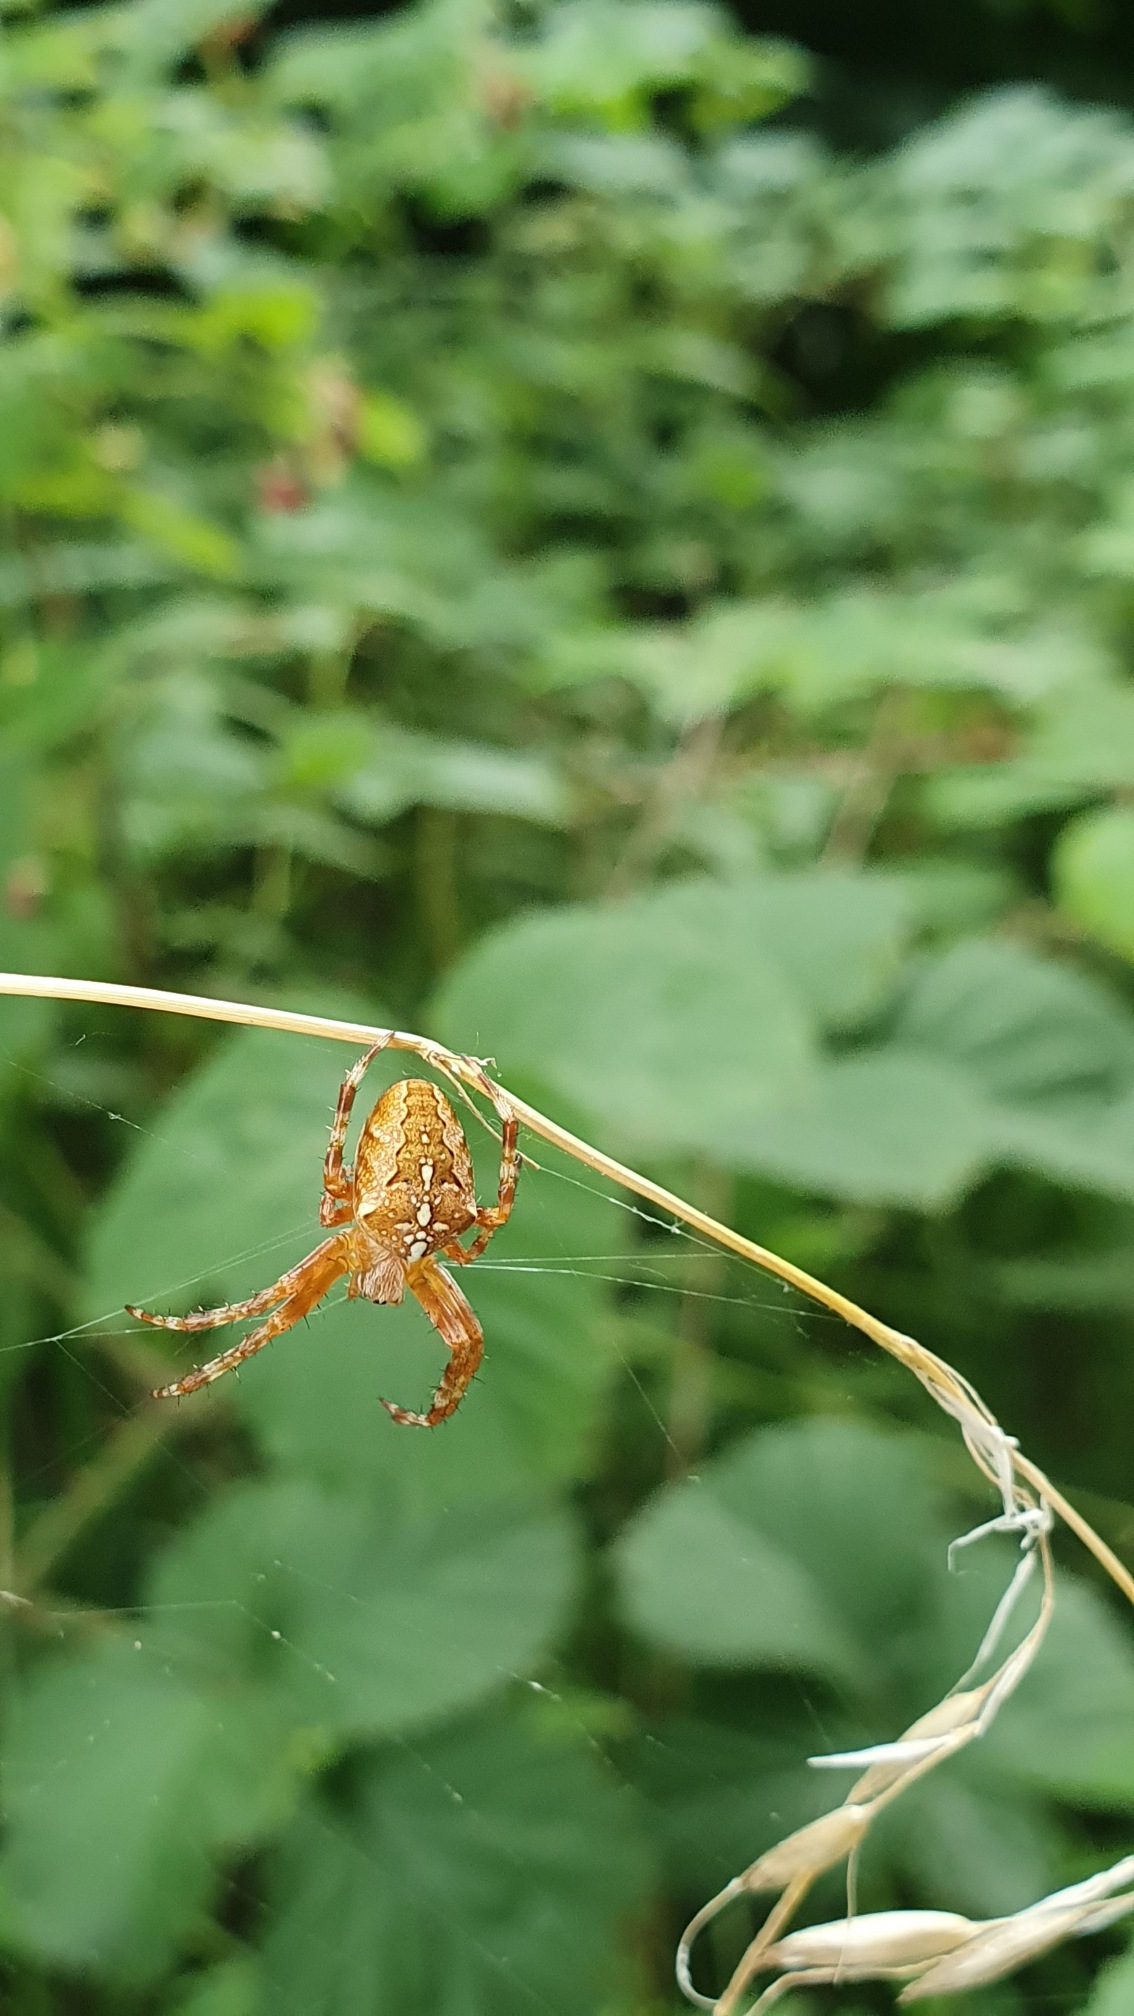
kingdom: Animalia
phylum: Arthropoda
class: Arachnida
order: Araneae
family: Araneidae
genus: Araneus
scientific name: Araneus diadematus
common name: Korsedderkop
